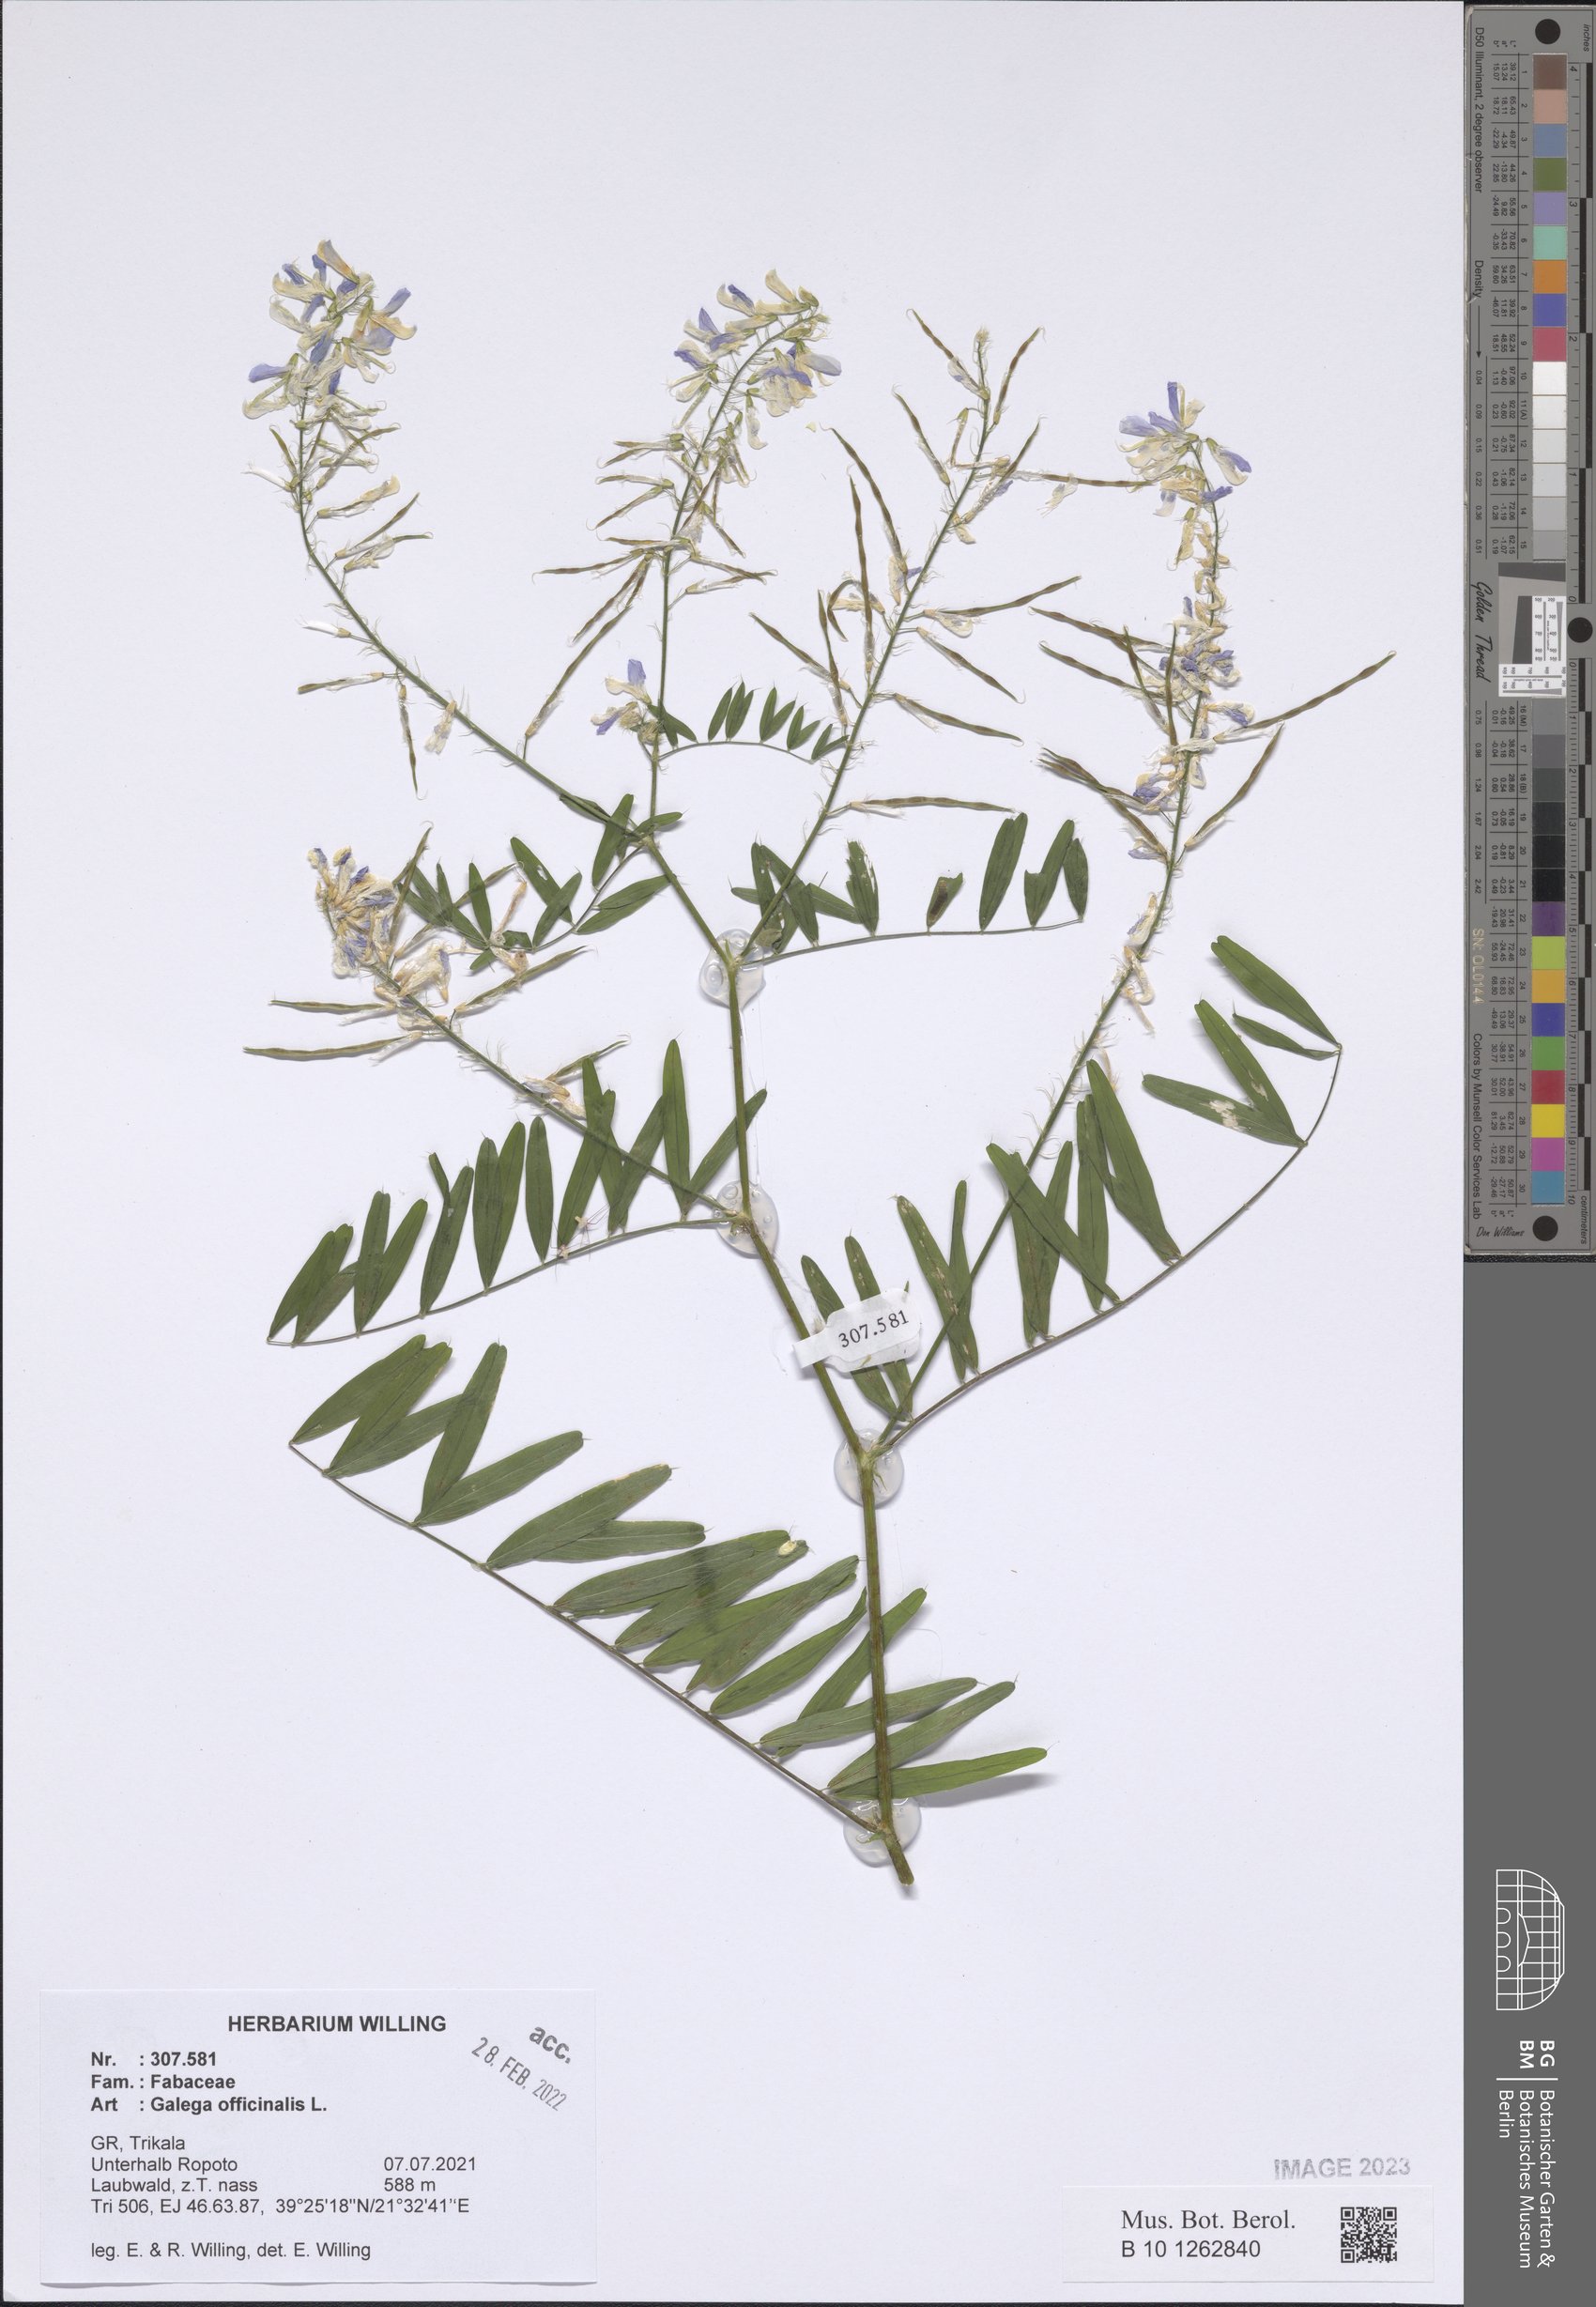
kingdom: Plantae
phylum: Tracheophyta
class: Magnoliopsida
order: Fabales
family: Fabaceae
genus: Galega
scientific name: Galega officinalis
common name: Goat's-rue
